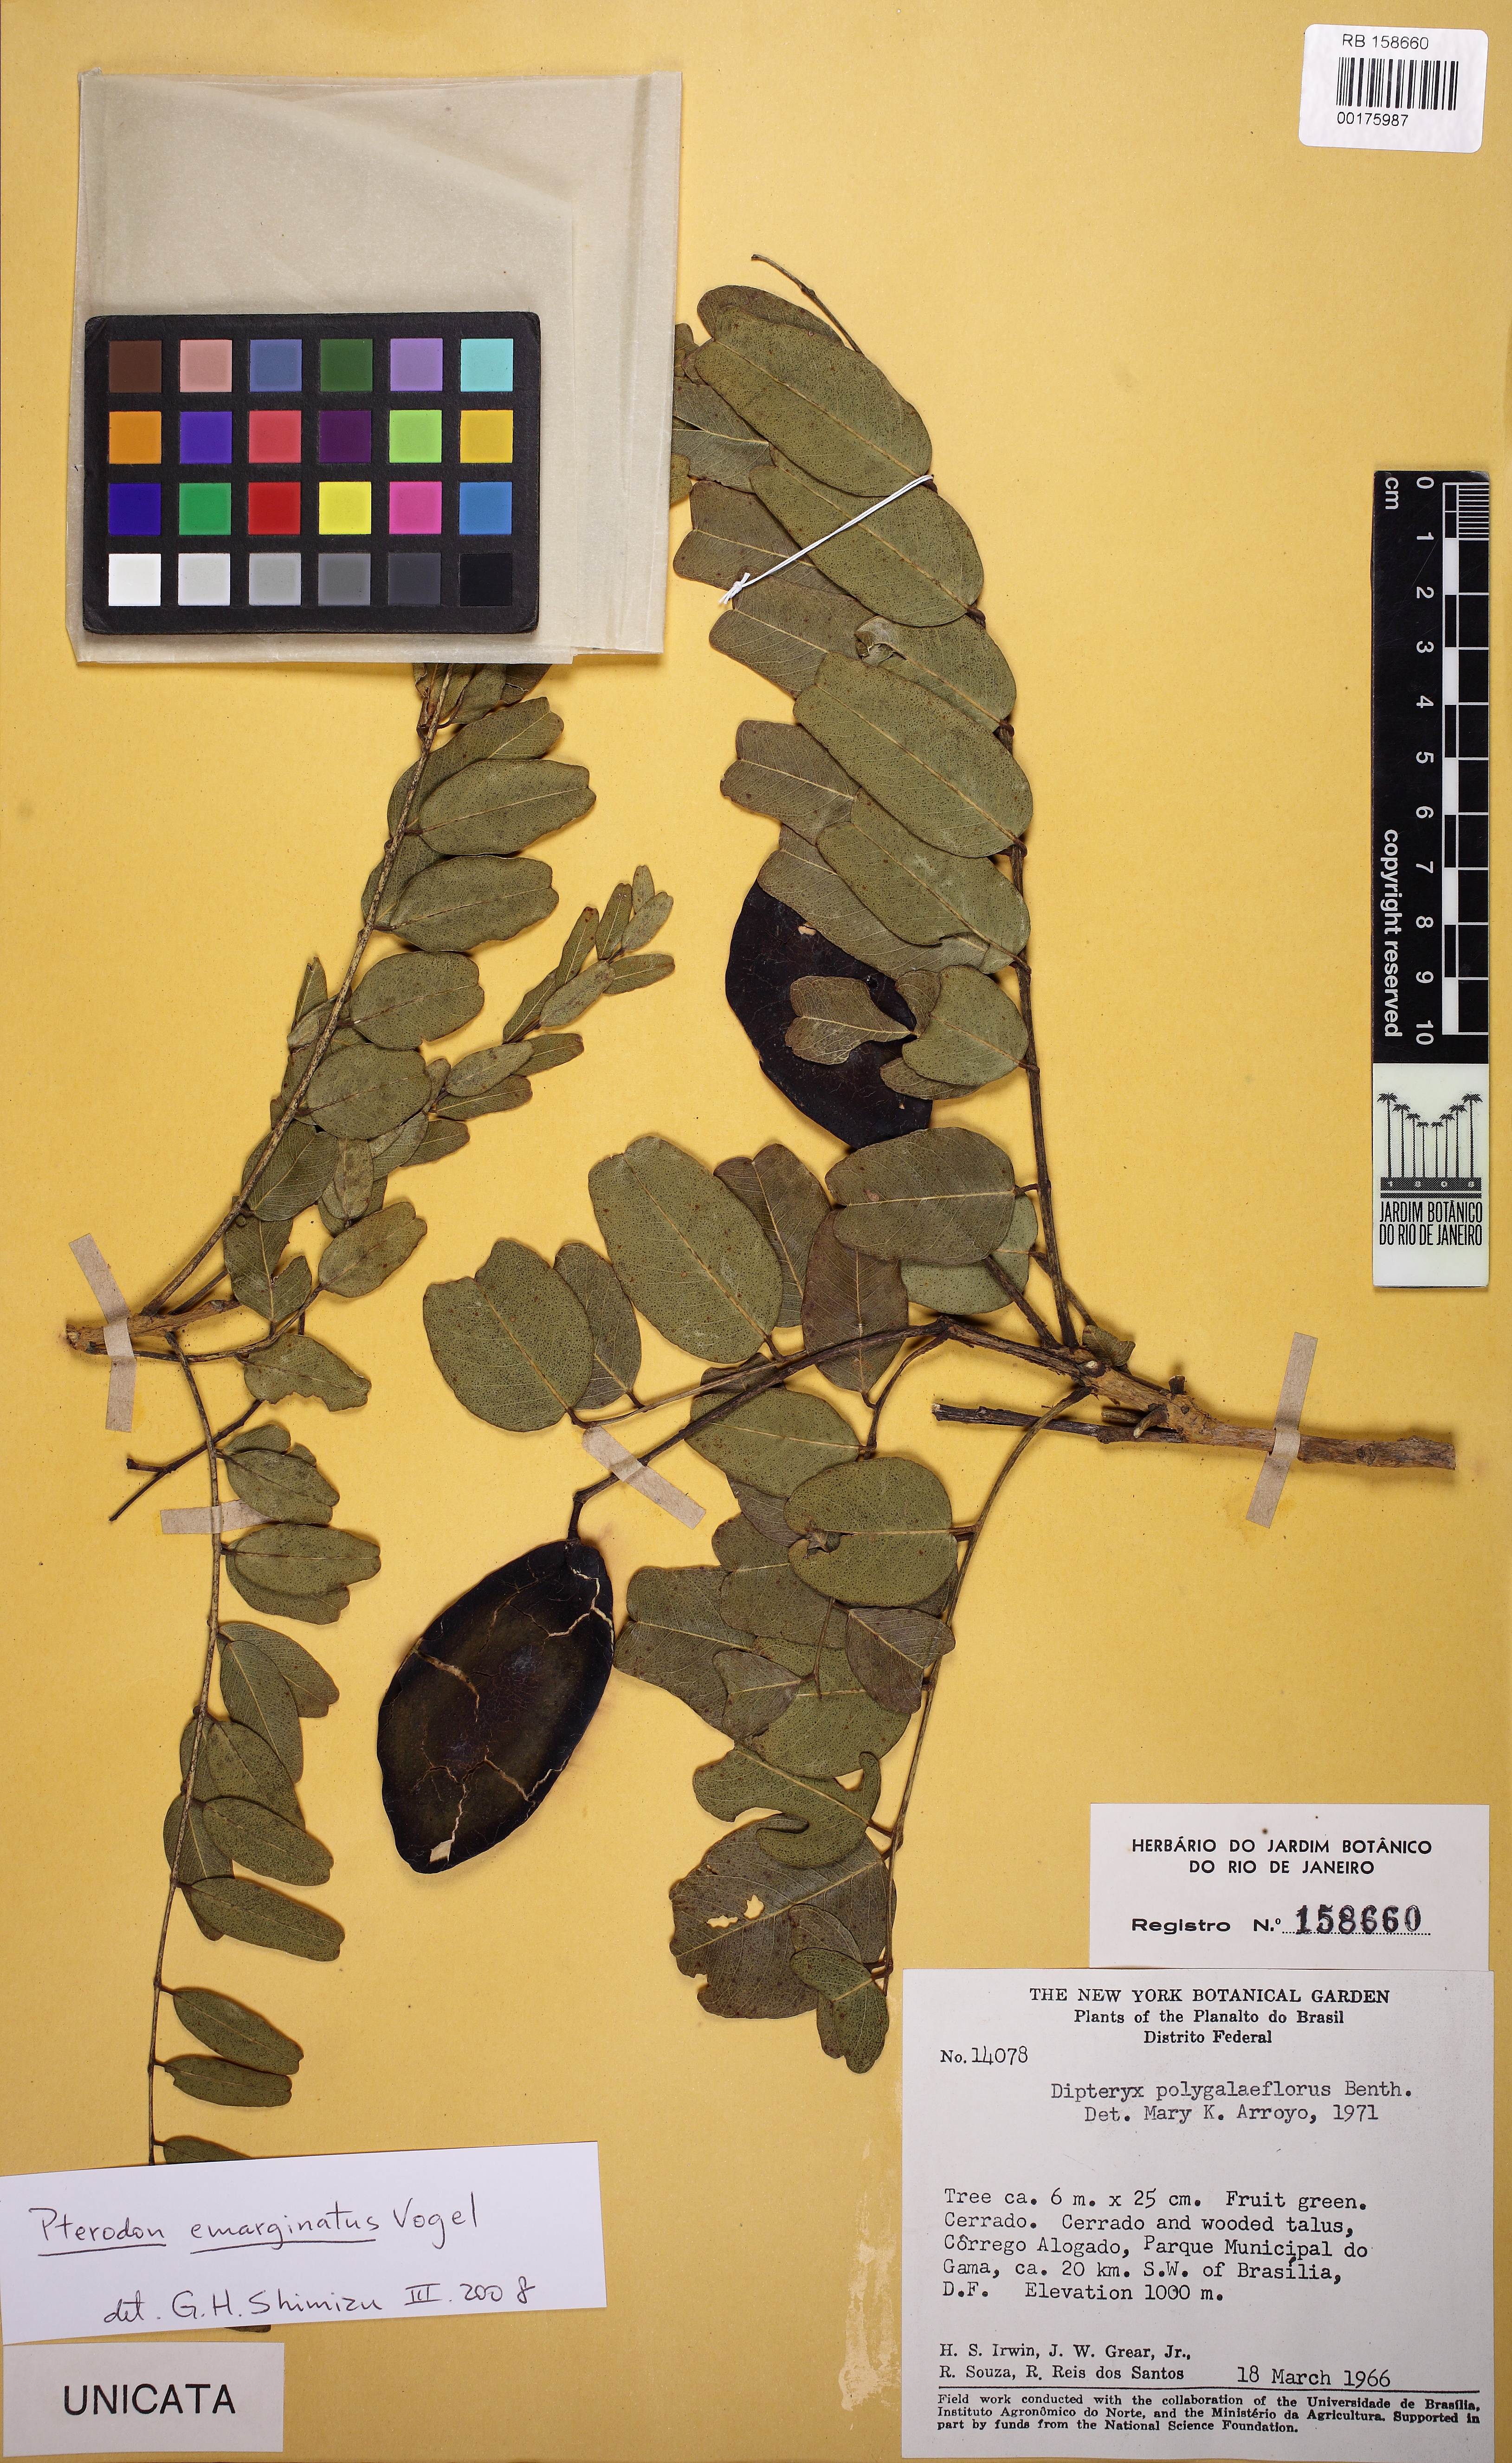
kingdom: Plantae
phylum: Tracheophyta
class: Magnoliopsida
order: Fabales
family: Fabaceae
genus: Pterodon
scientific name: Pterodon emarginatus
